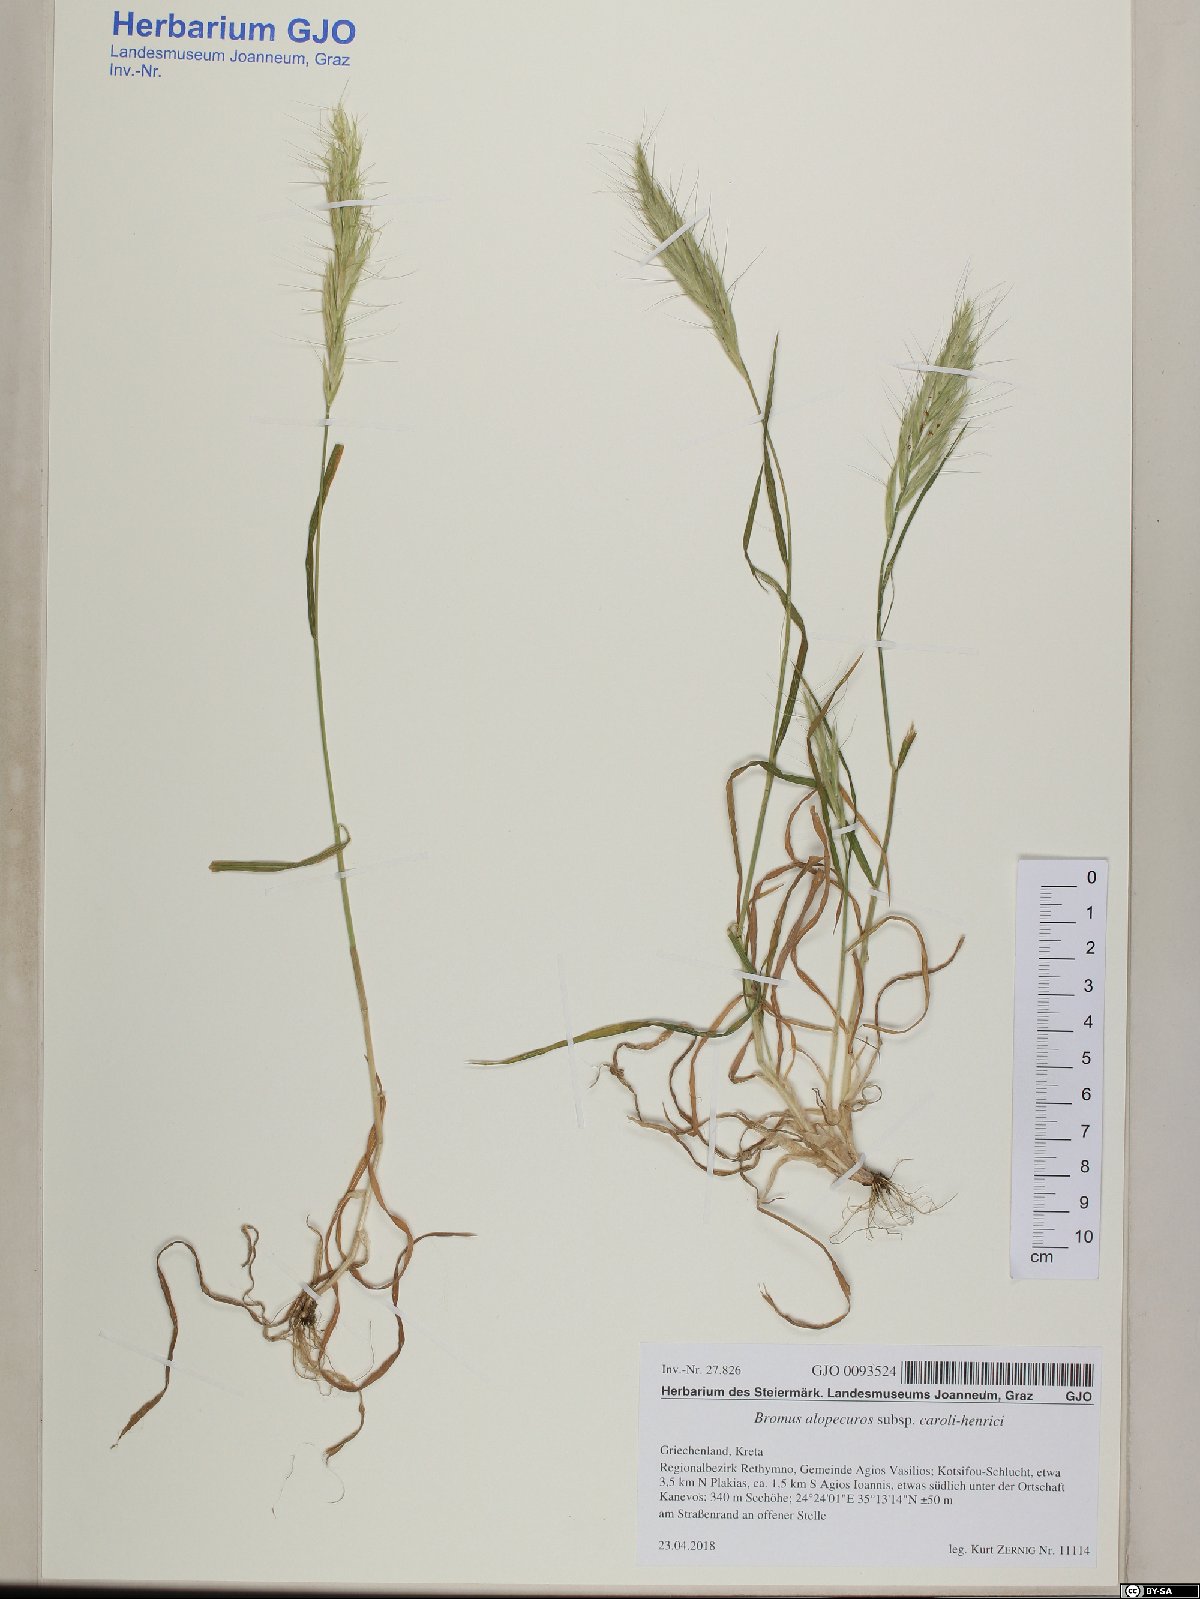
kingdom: Plantae
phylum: Tracheophyta
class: Liliopsida
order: Poales
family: Poaceae
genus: Bromus
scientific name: Bromus alopecuros
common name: Weedy brome
